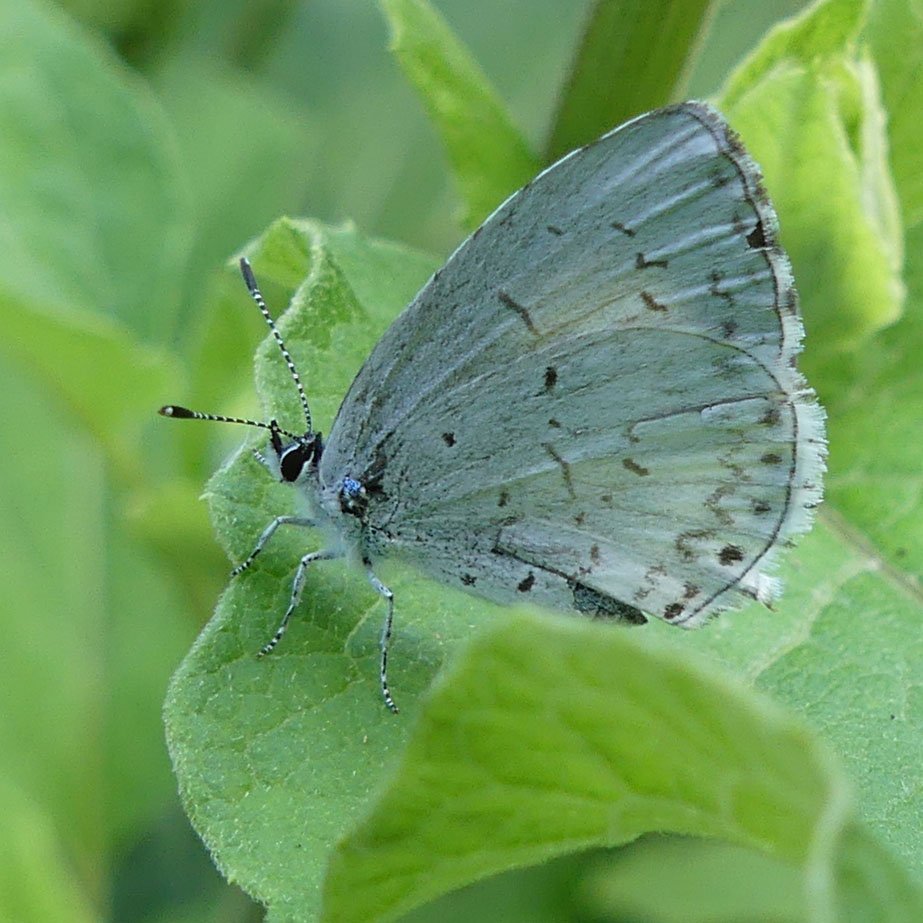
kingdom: Animalia
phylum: Arthropoda
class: Insecta
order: Lepidoptera
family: Lycaenidae
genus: Celastrina
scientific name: Celastrina
